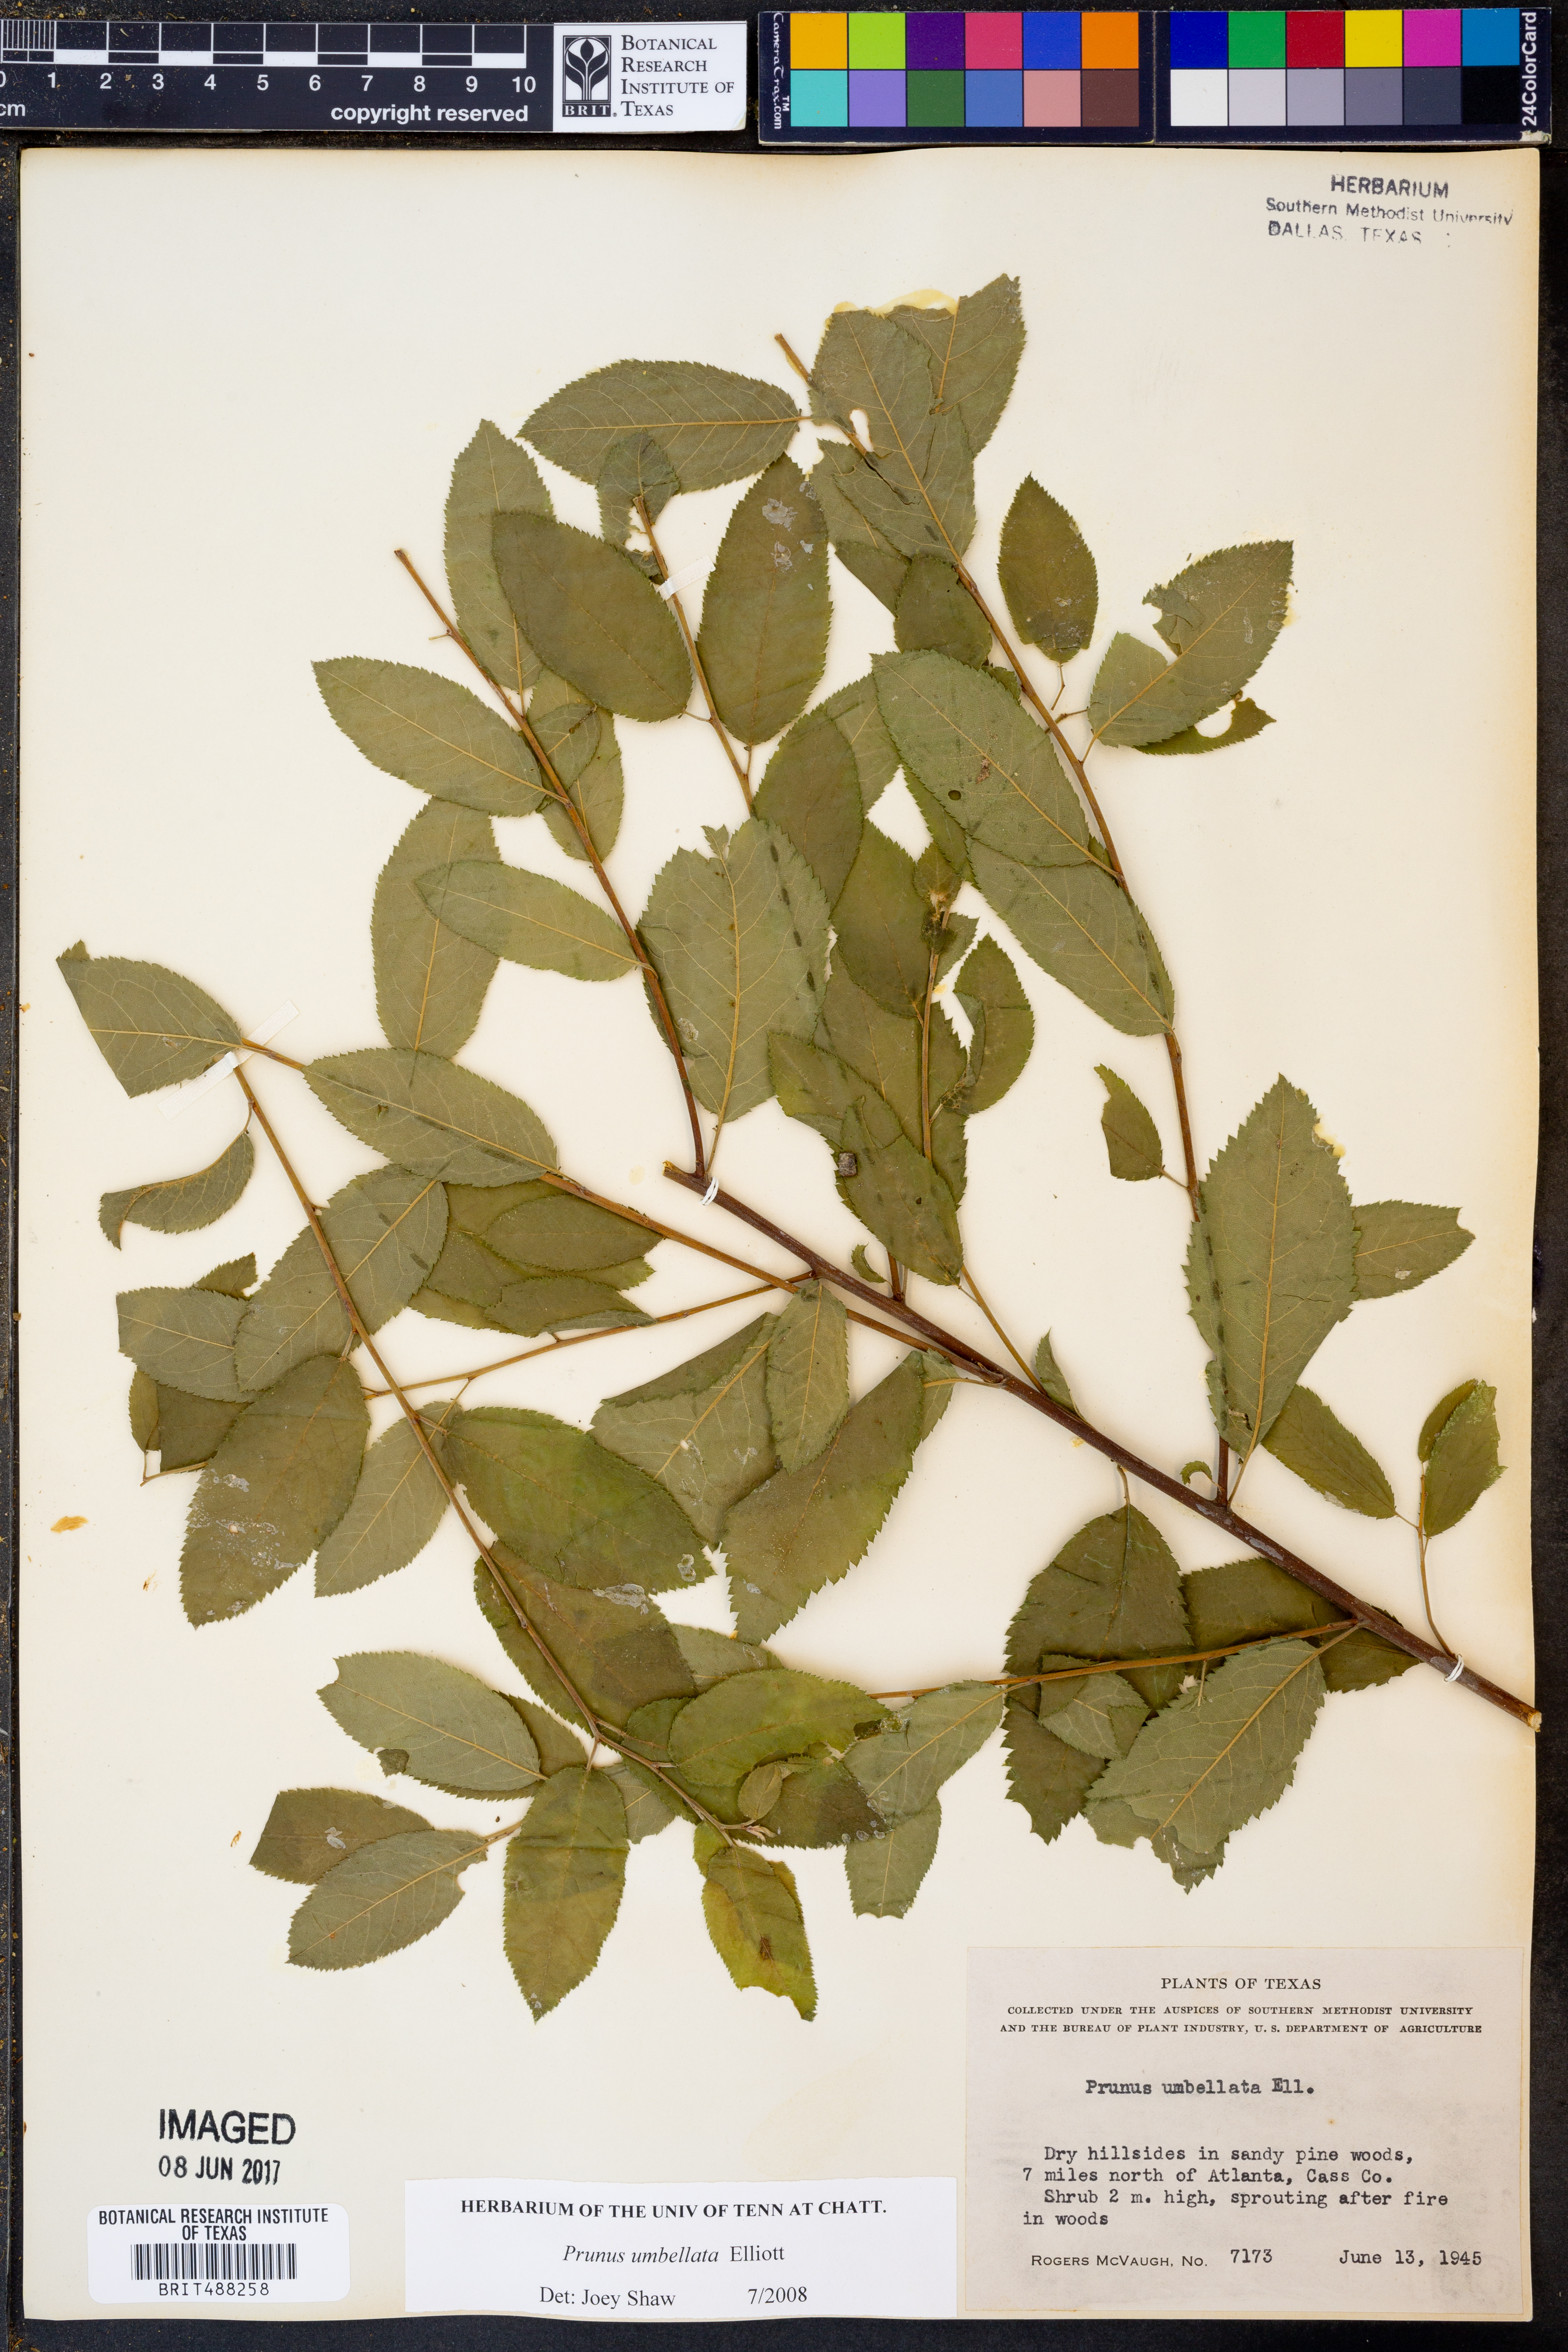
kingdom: Plantae
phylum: Tracheophyta
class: Magnoliopsida
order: Rosales
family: Rosaceae
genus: Prunus
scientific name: Prunus umbellata
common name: Allegheny plum
